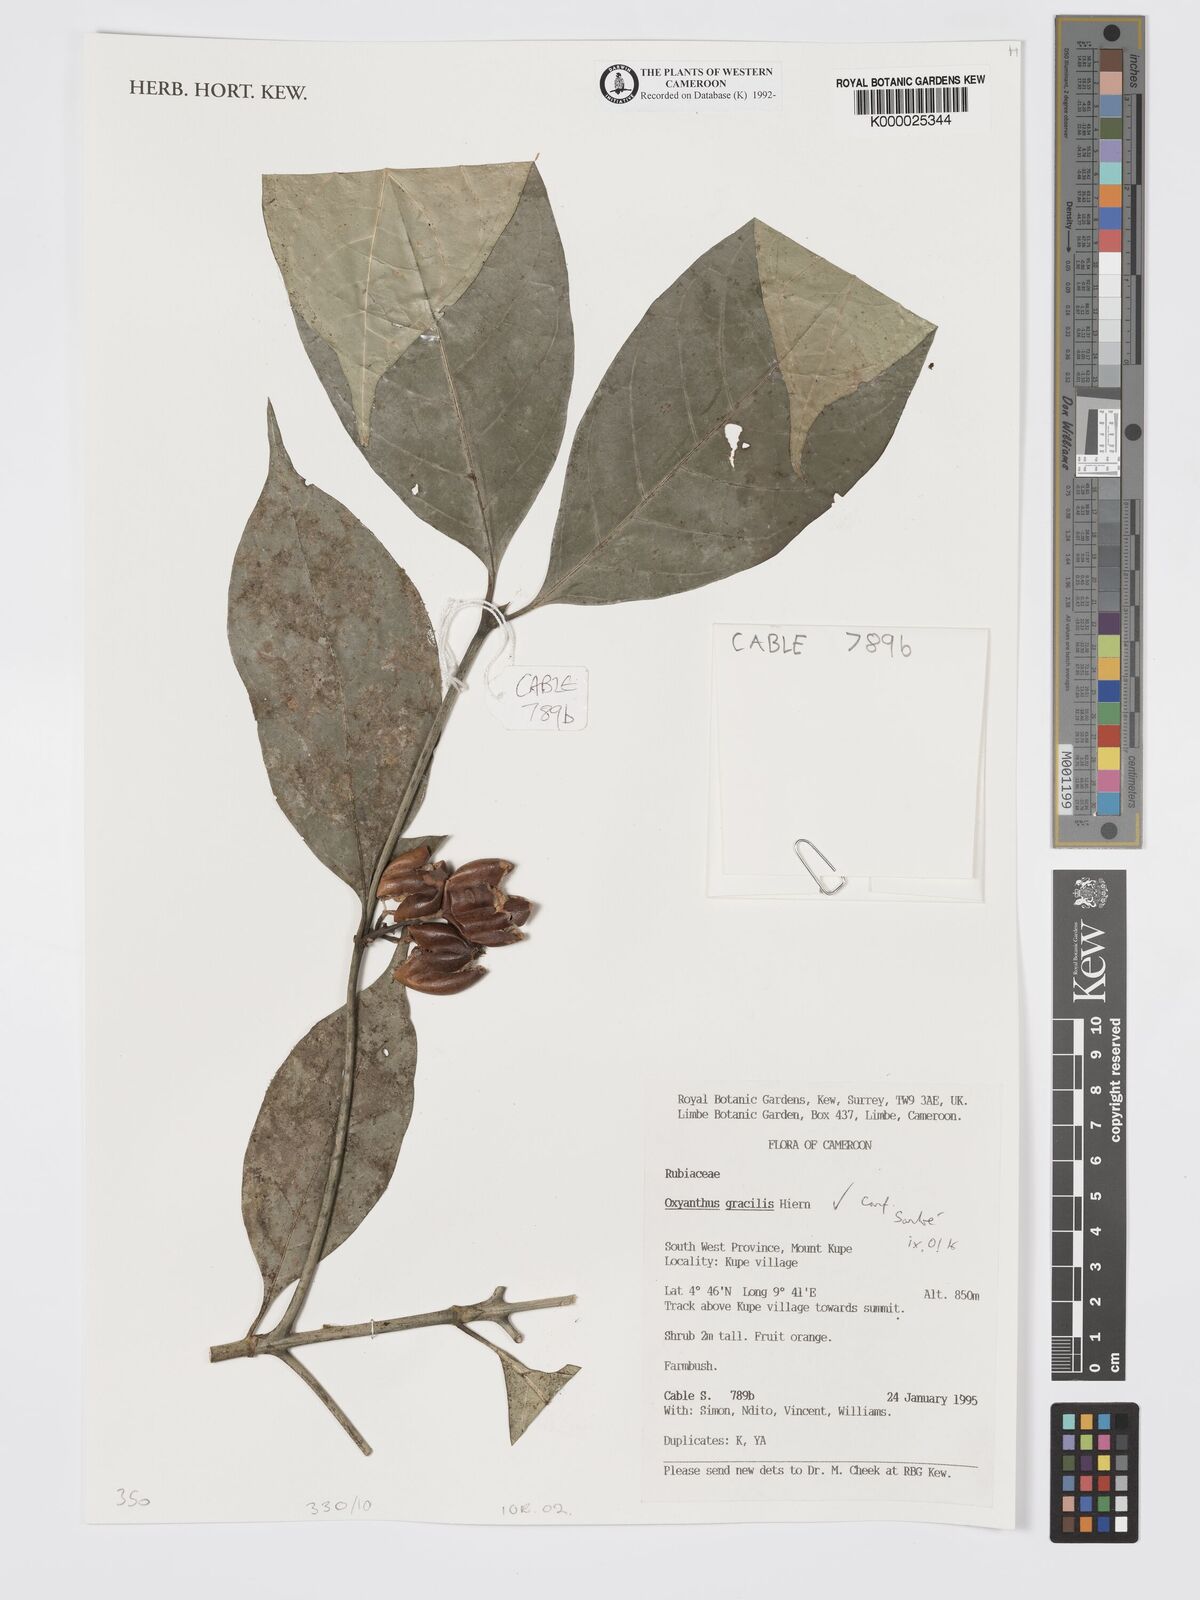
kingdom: Plantae
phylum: Tracheophyta
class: Magnoliopsida
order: Gentianales
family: Rubiaceae
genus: Oxyanthus
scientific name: Oxyanthus gracilis
